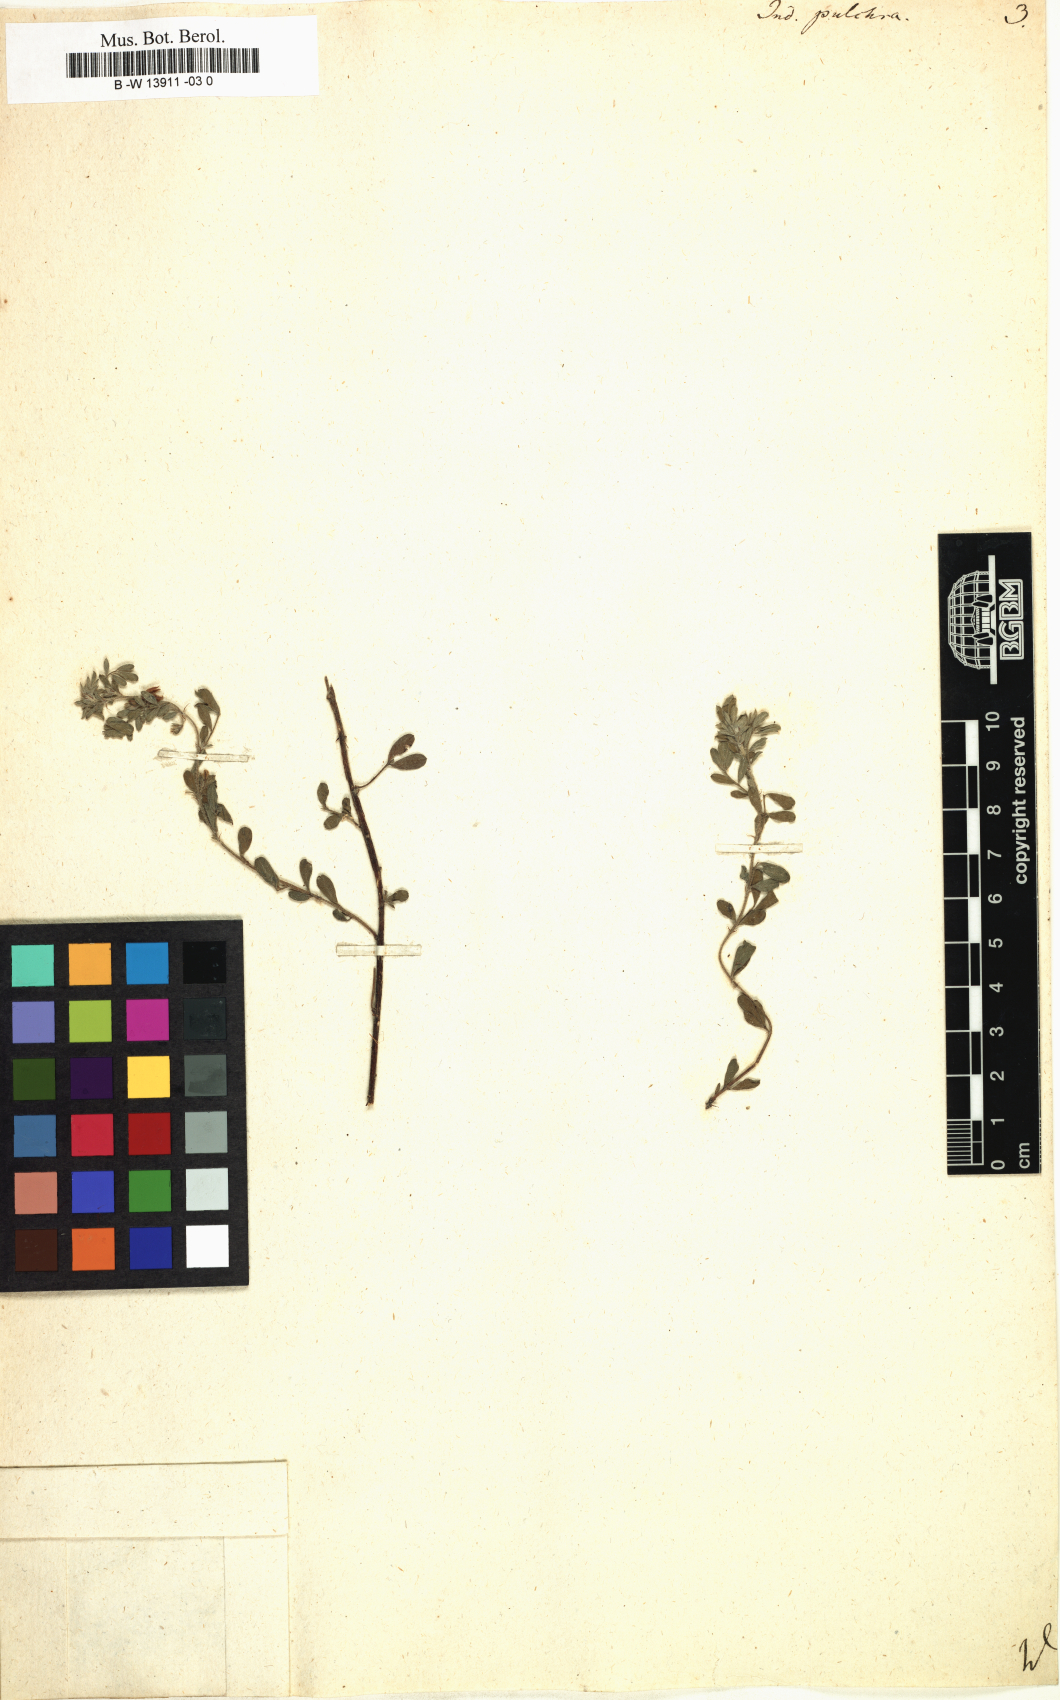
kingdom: Plantae
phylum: Tracheophyta
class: Magnoliopsida
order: Fabales
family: Fabaceae
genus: Indigofera
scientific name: Indigofera pulchra
